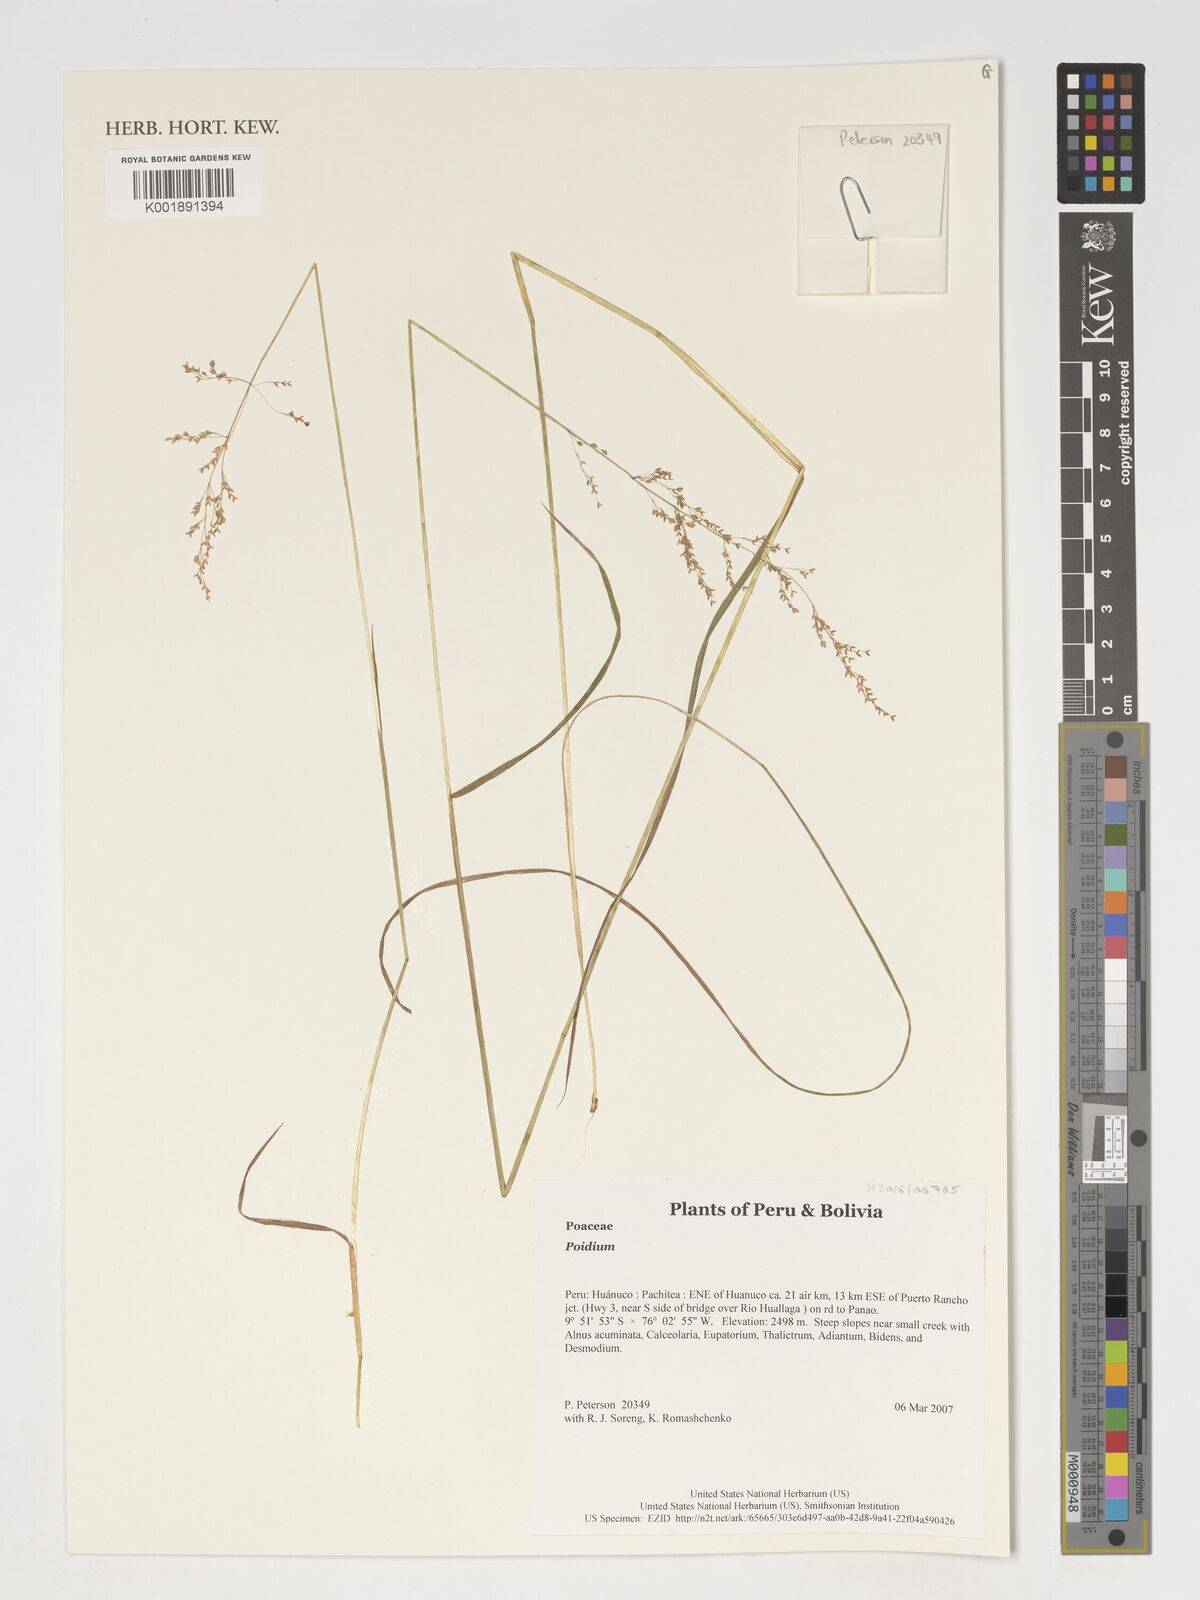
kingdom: Plantae
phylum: Tracheophyta
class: Liliopsida
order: Poales
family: Poaceae
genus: Poidium
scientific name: Poidium
